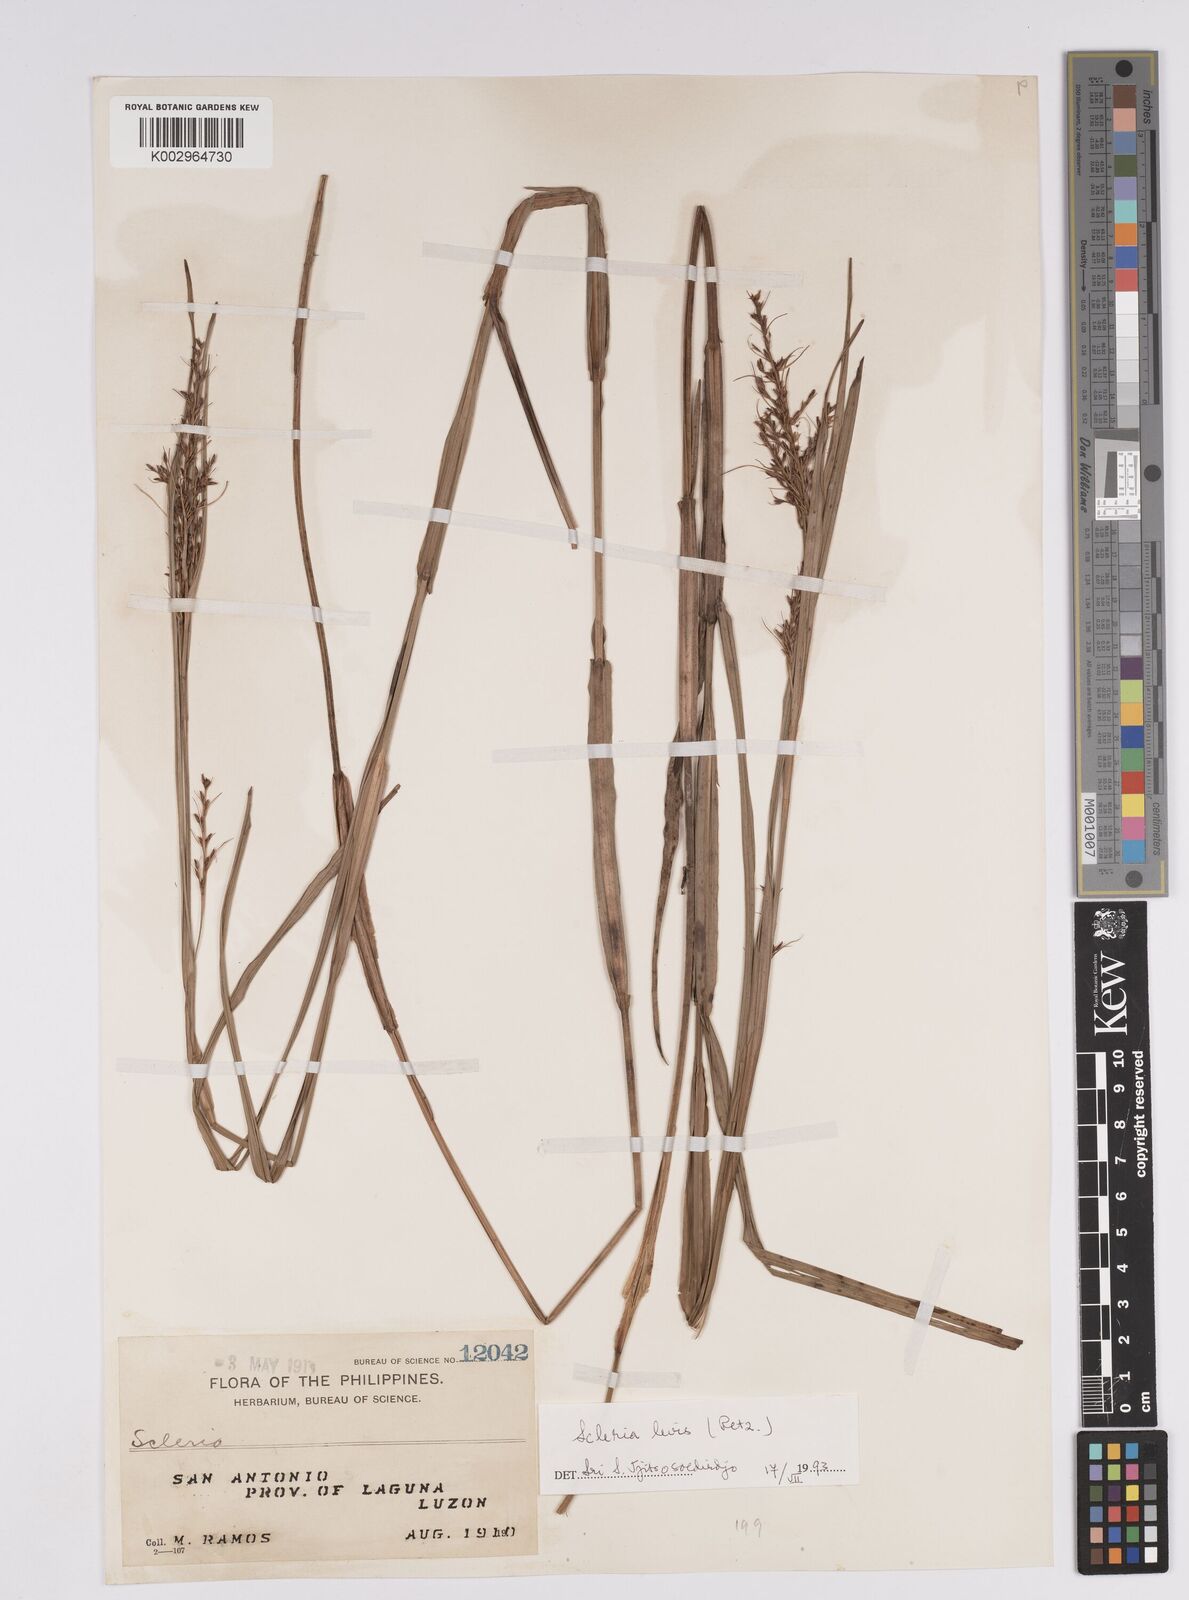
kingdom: Plantae
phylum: Tracheophyta
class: Liliopsida
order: Poales
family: Cyperaceae
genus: Scleria
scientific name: Scleria levis
